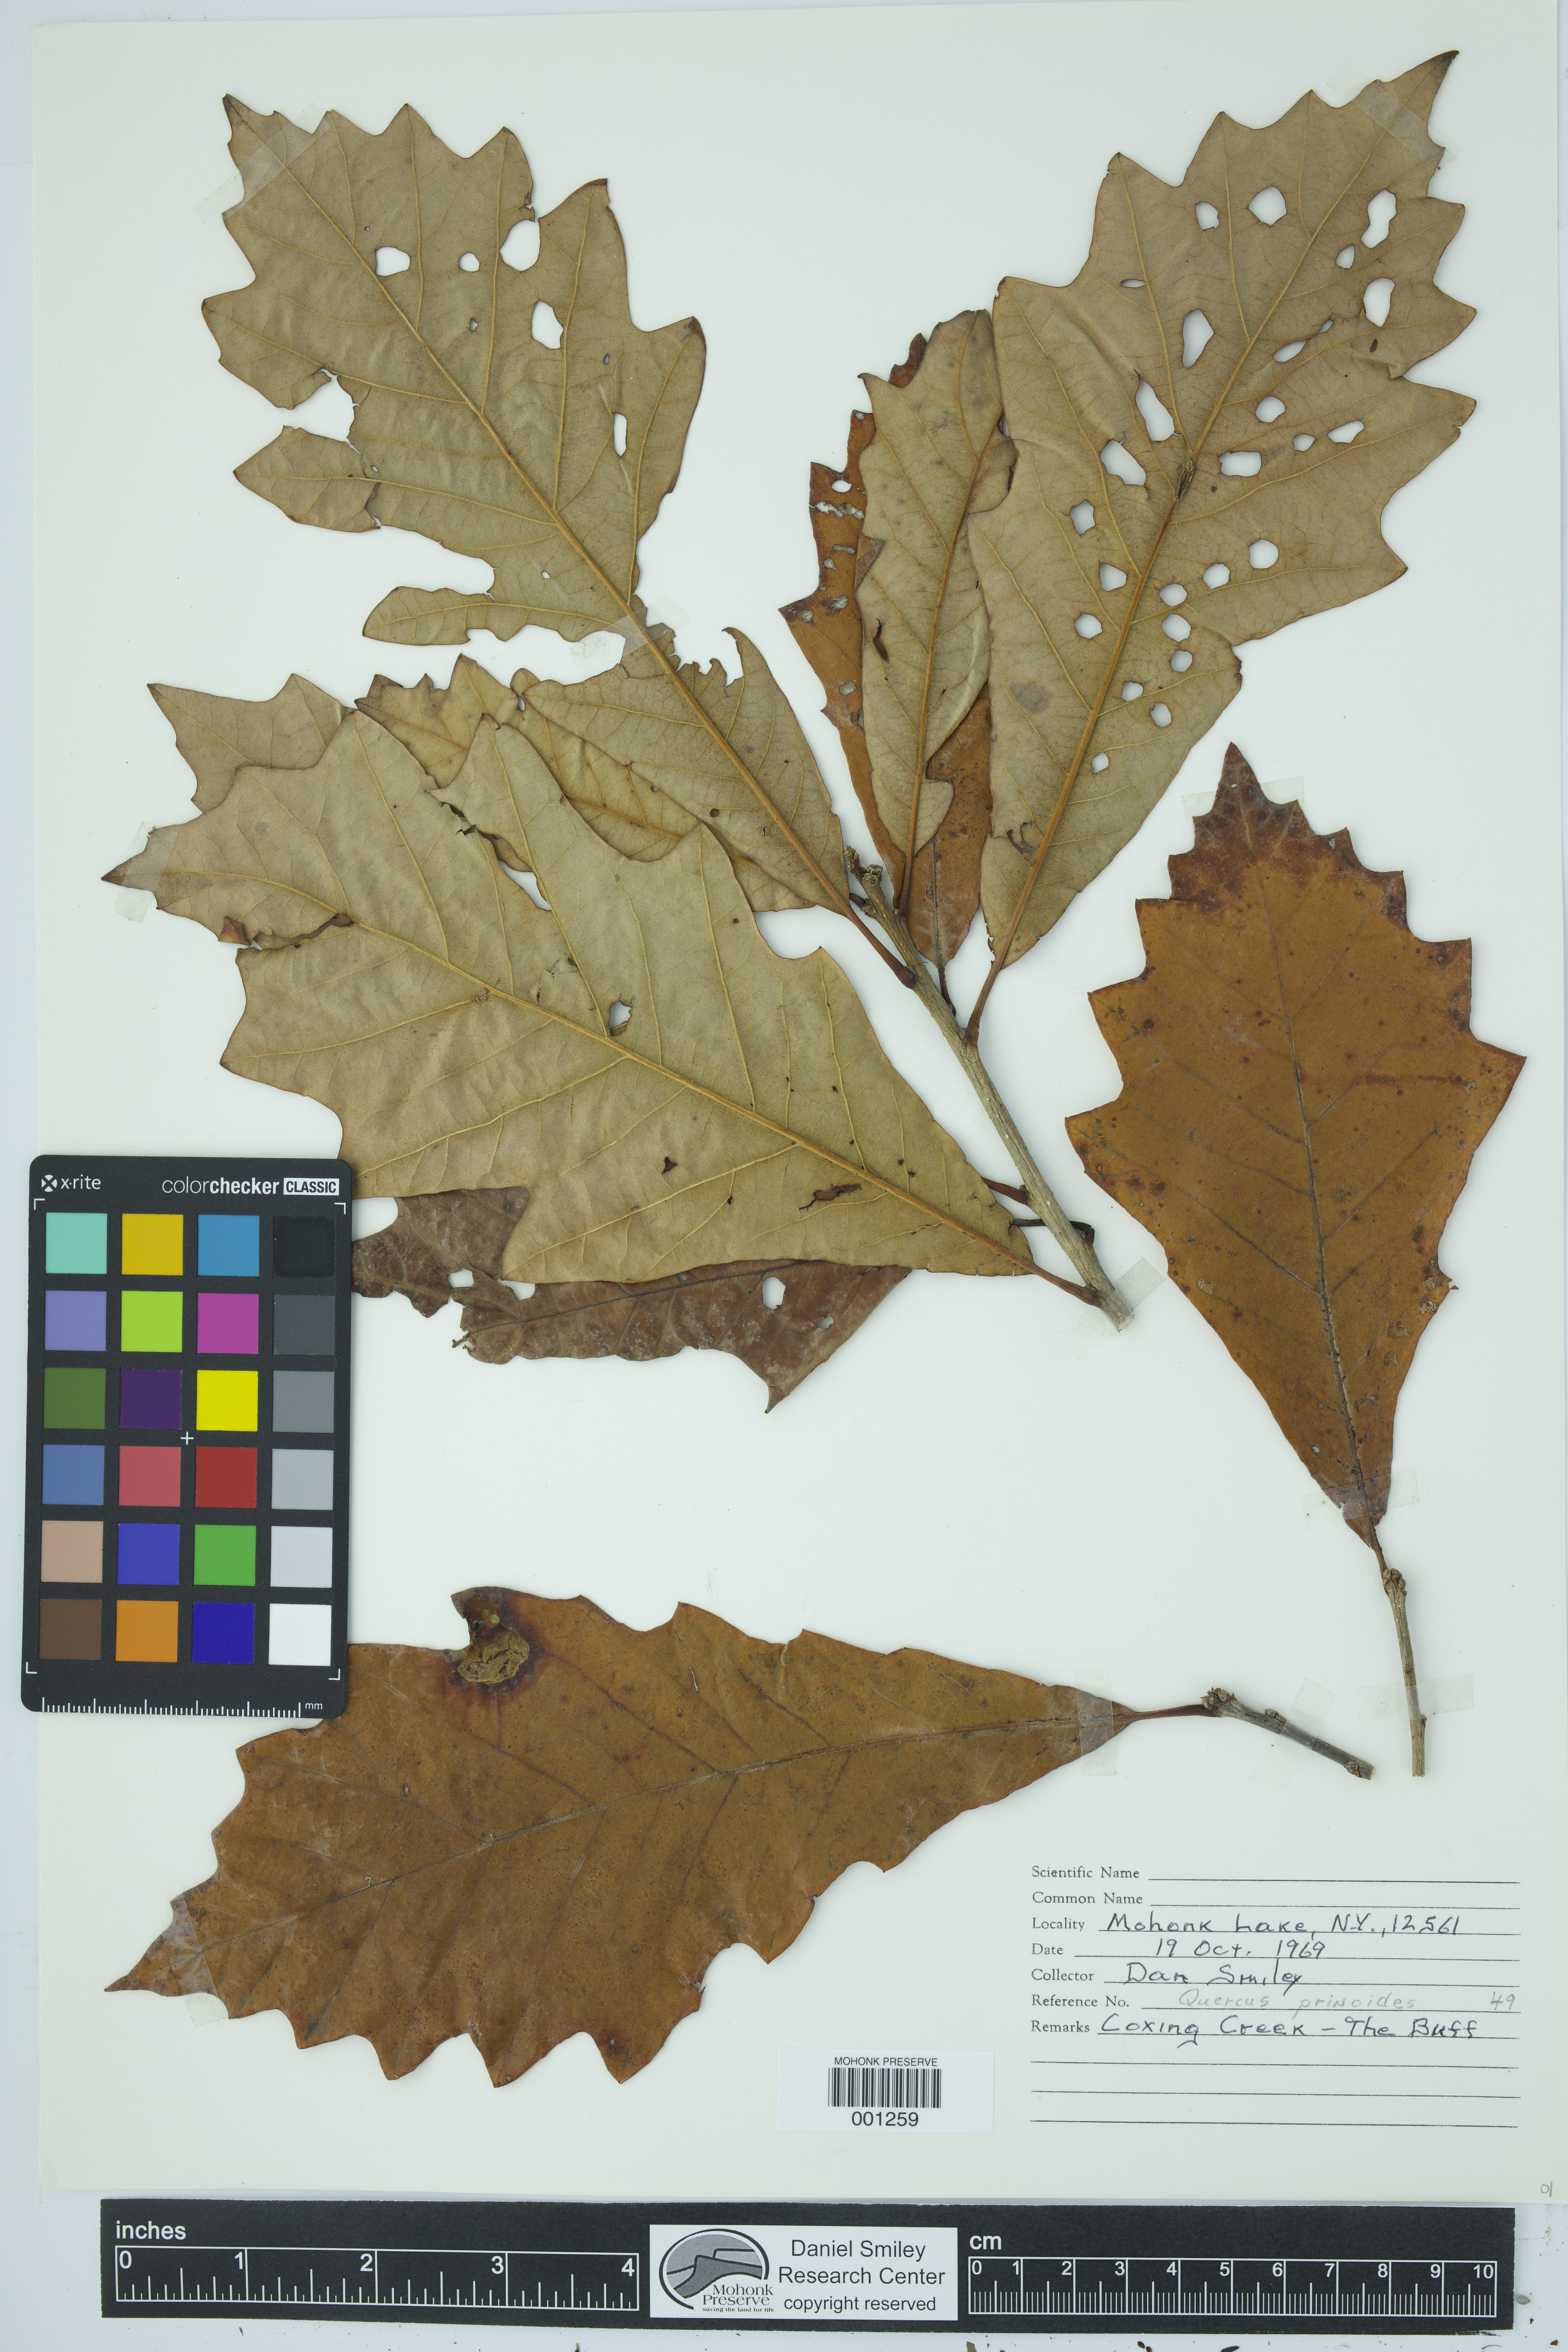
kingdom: Plantae
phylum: Tracheophyta
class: Magnoliopsida
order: Fagales
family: Fagaceae
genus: Quercus
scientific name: Quercus prinoides
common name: Dwarf chinkapin oak
